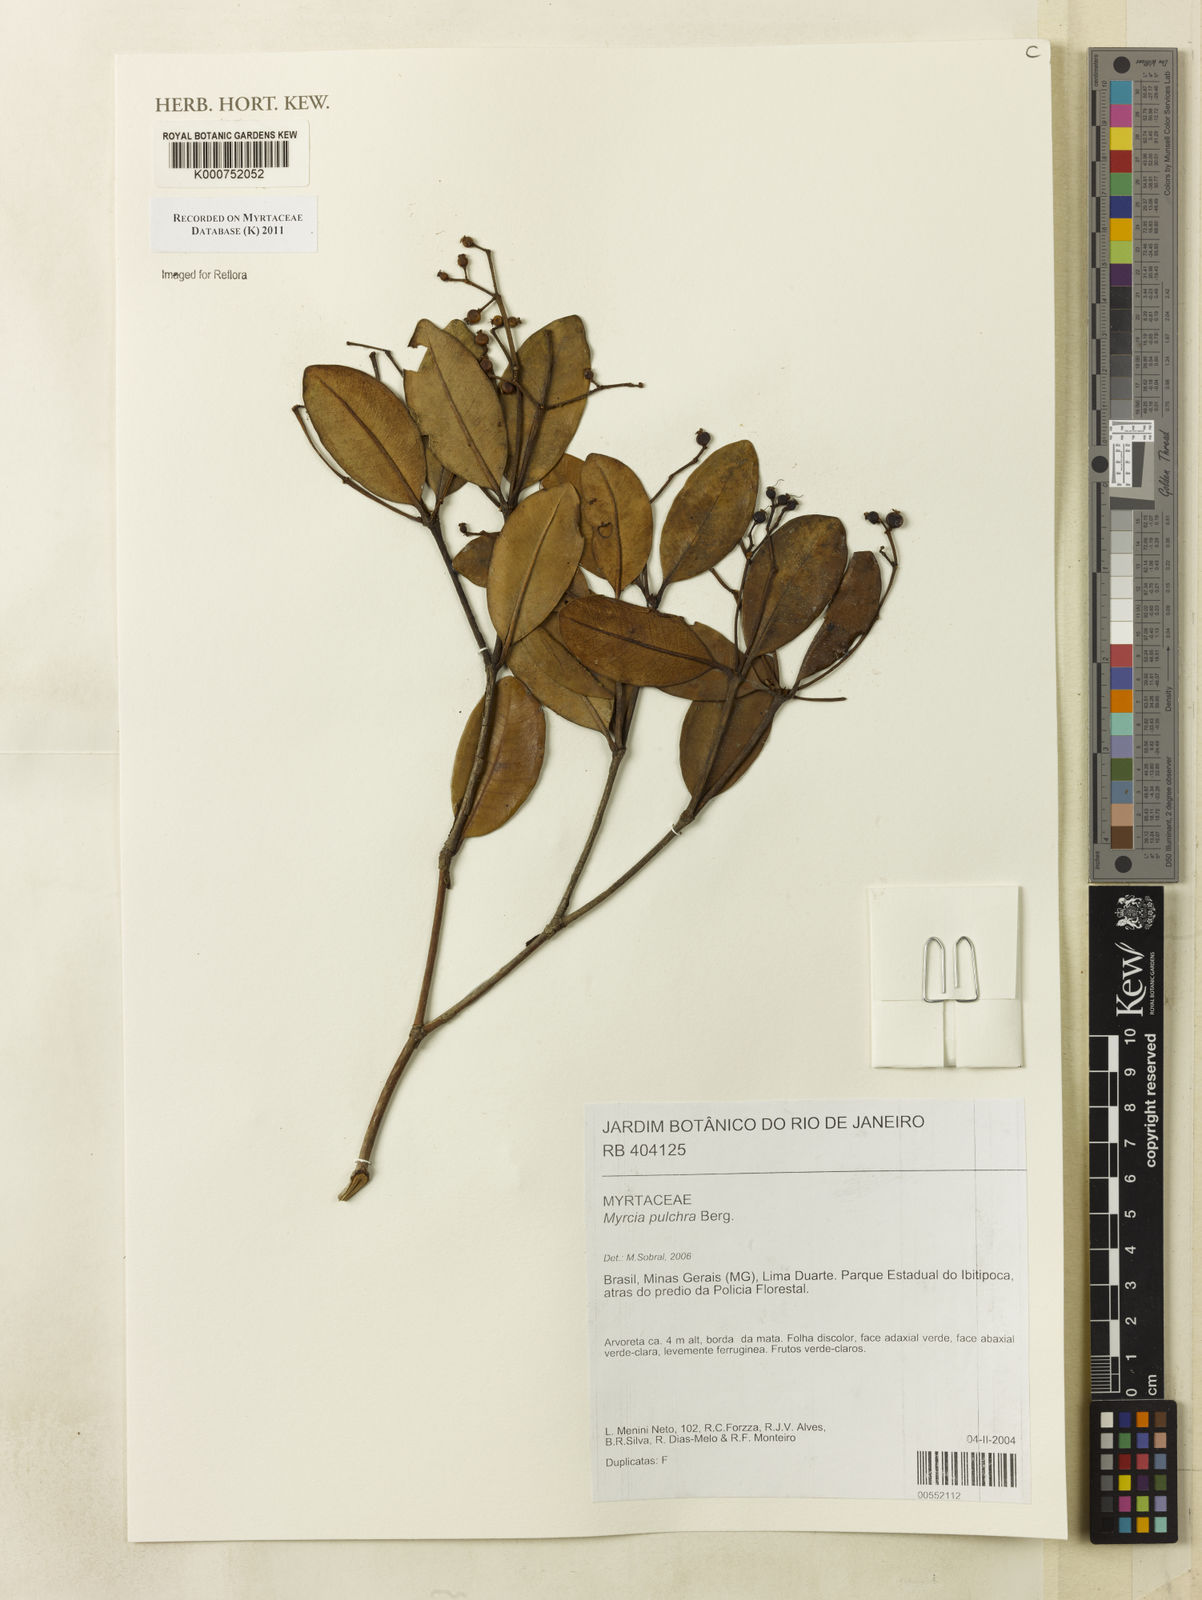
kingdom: Plantae
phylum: Tracheophyta
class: Magnoliopsida
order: Myrtales
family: Myrtaceae
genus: Myrcia
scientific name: Myrcia pulchra
